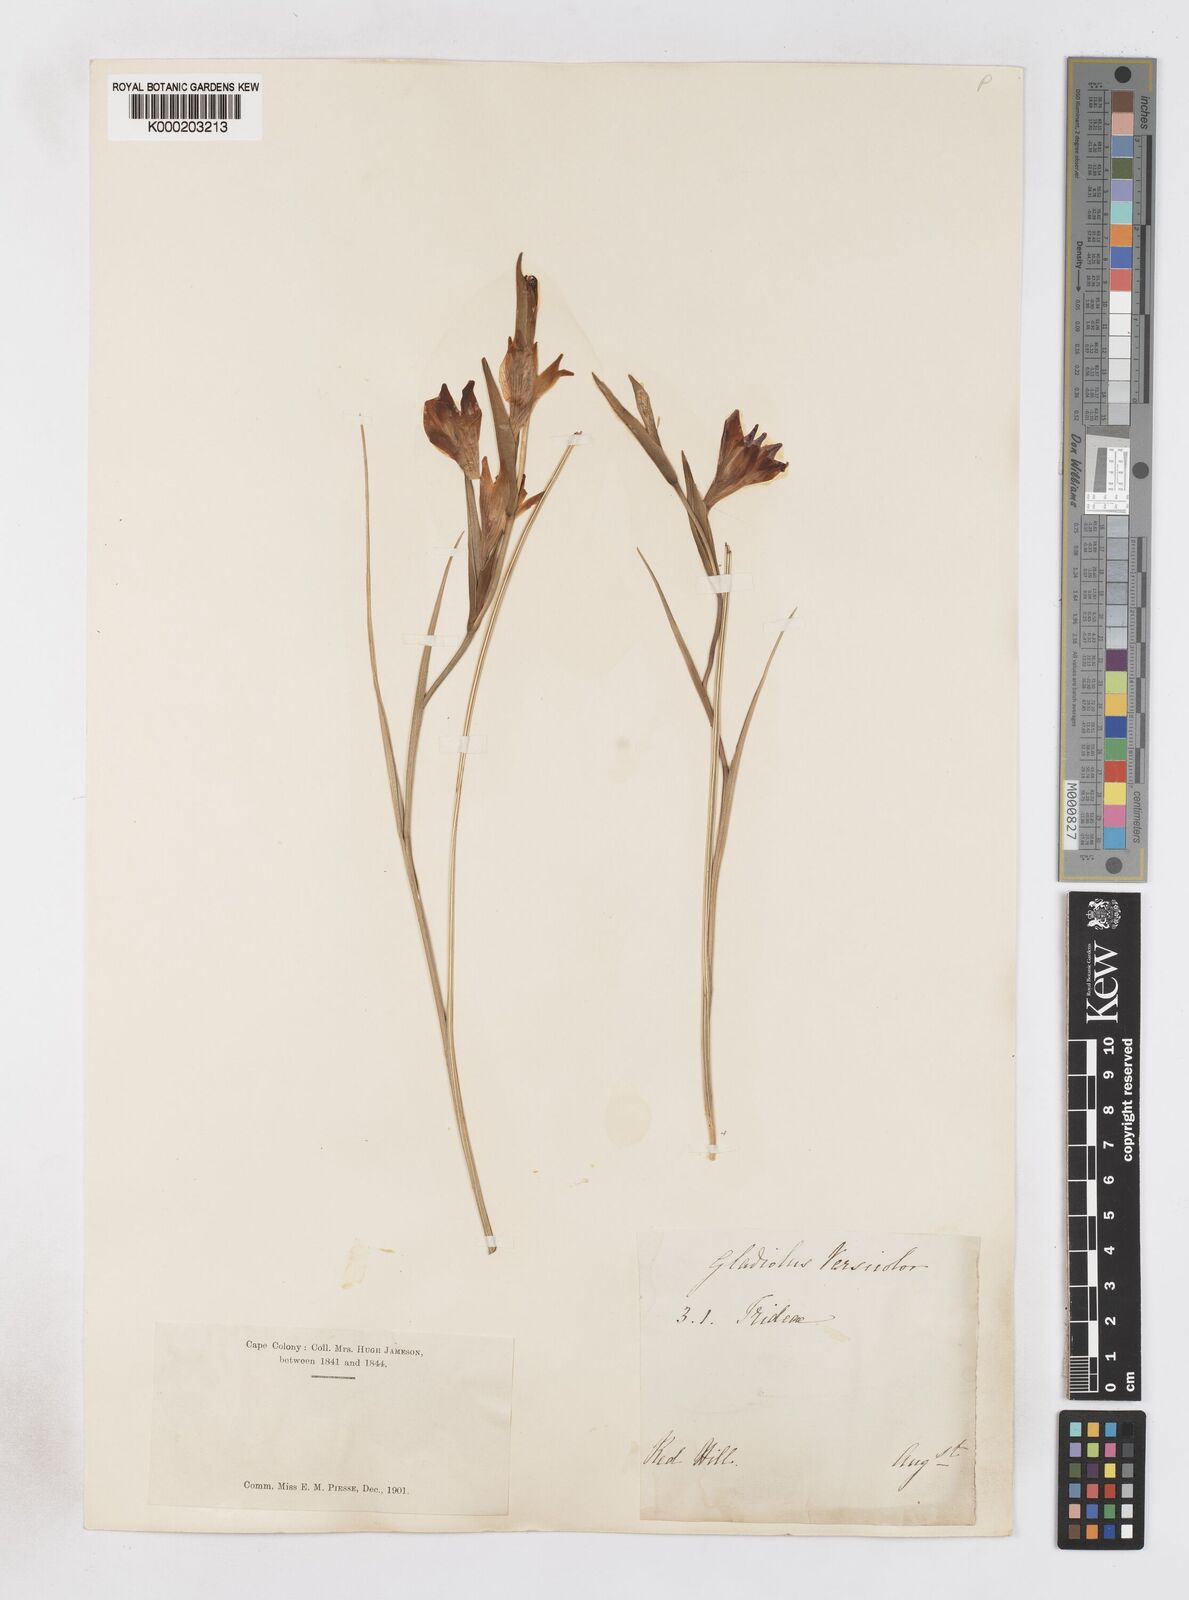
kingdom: Plantae
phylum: Tracheophyta
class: Liliopsida
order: Asparagales
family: Iridaceae
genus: Gladiolus
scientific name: Gladiolus hyalinus
